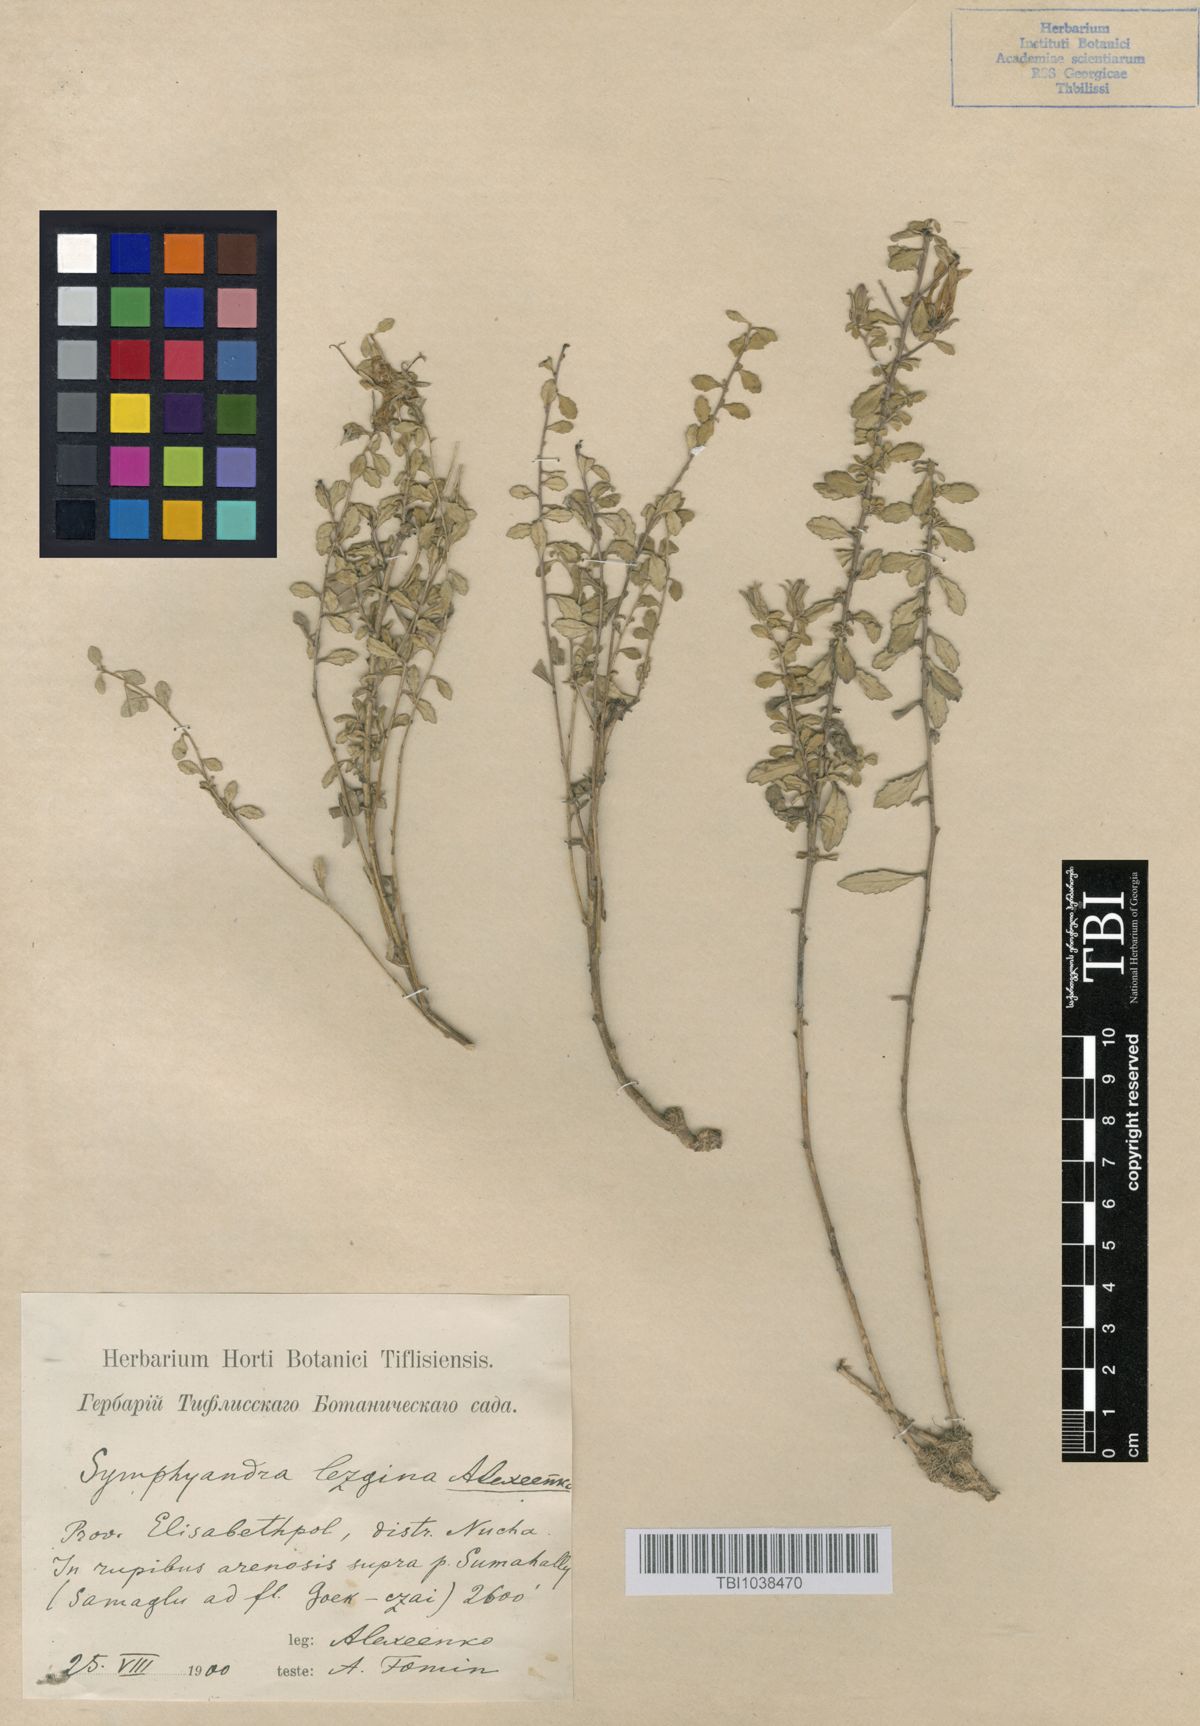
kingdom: Plantae
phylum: Tracheophyta
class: Magnoliopsida
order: Asterales
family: Campanulaceae
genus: Campanula
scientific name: Campanula lezgina
